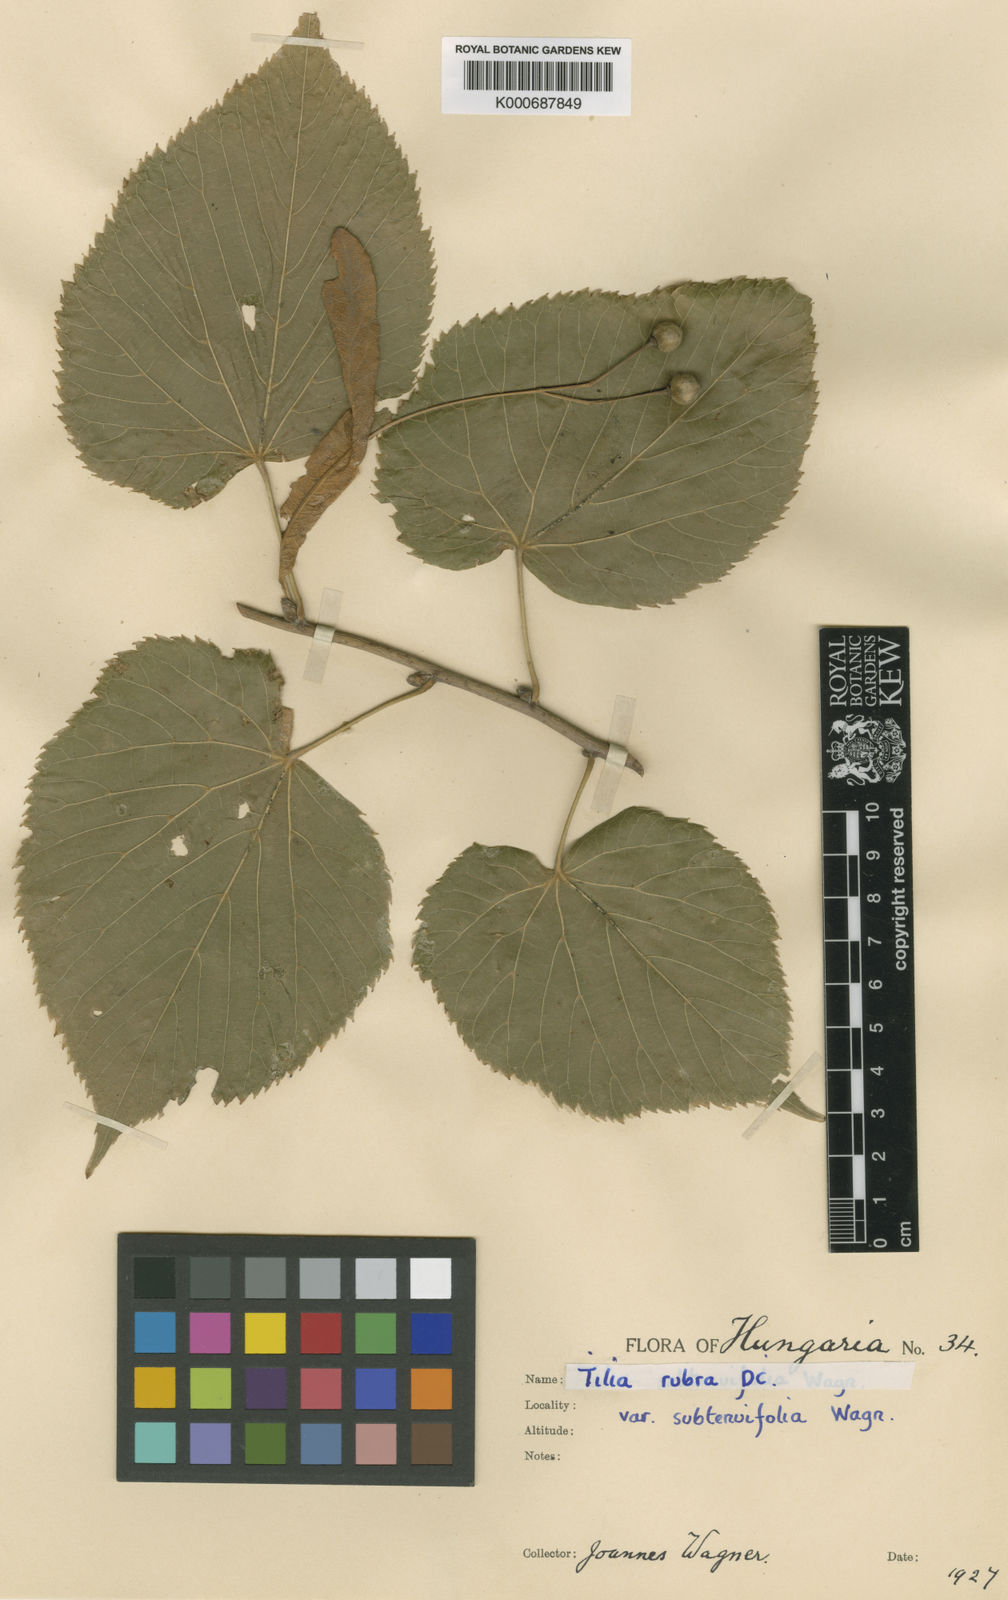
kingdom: Plantae
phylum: Tracheophyta
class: Magnoliopsida
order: Malvales
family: Malvaceae
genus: Tilia
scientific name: Tilia platyphyllos
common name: Large-leaved lime
